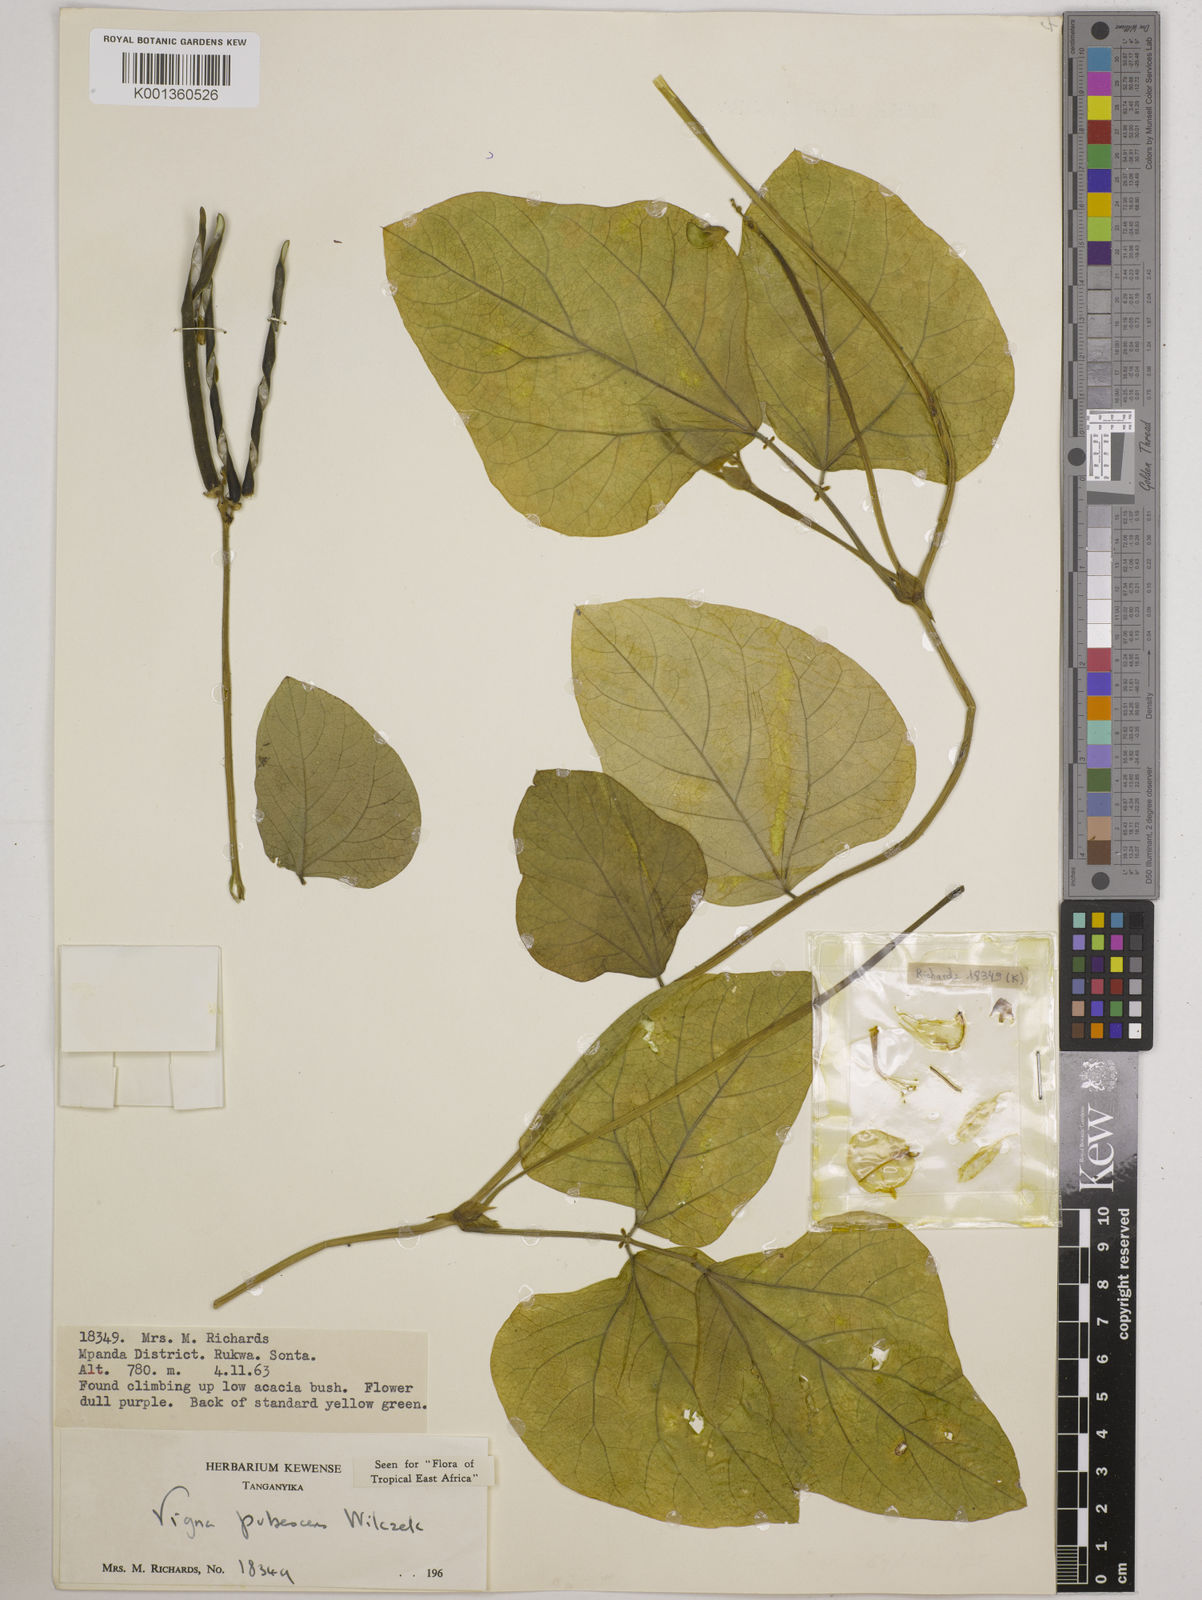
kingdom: Plantae
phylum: Tracheophyta
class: Magnoliopsida
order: Fabales
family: Fabaceae
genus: Vigna
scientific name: Vigna unguiculata
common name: Cowpea
